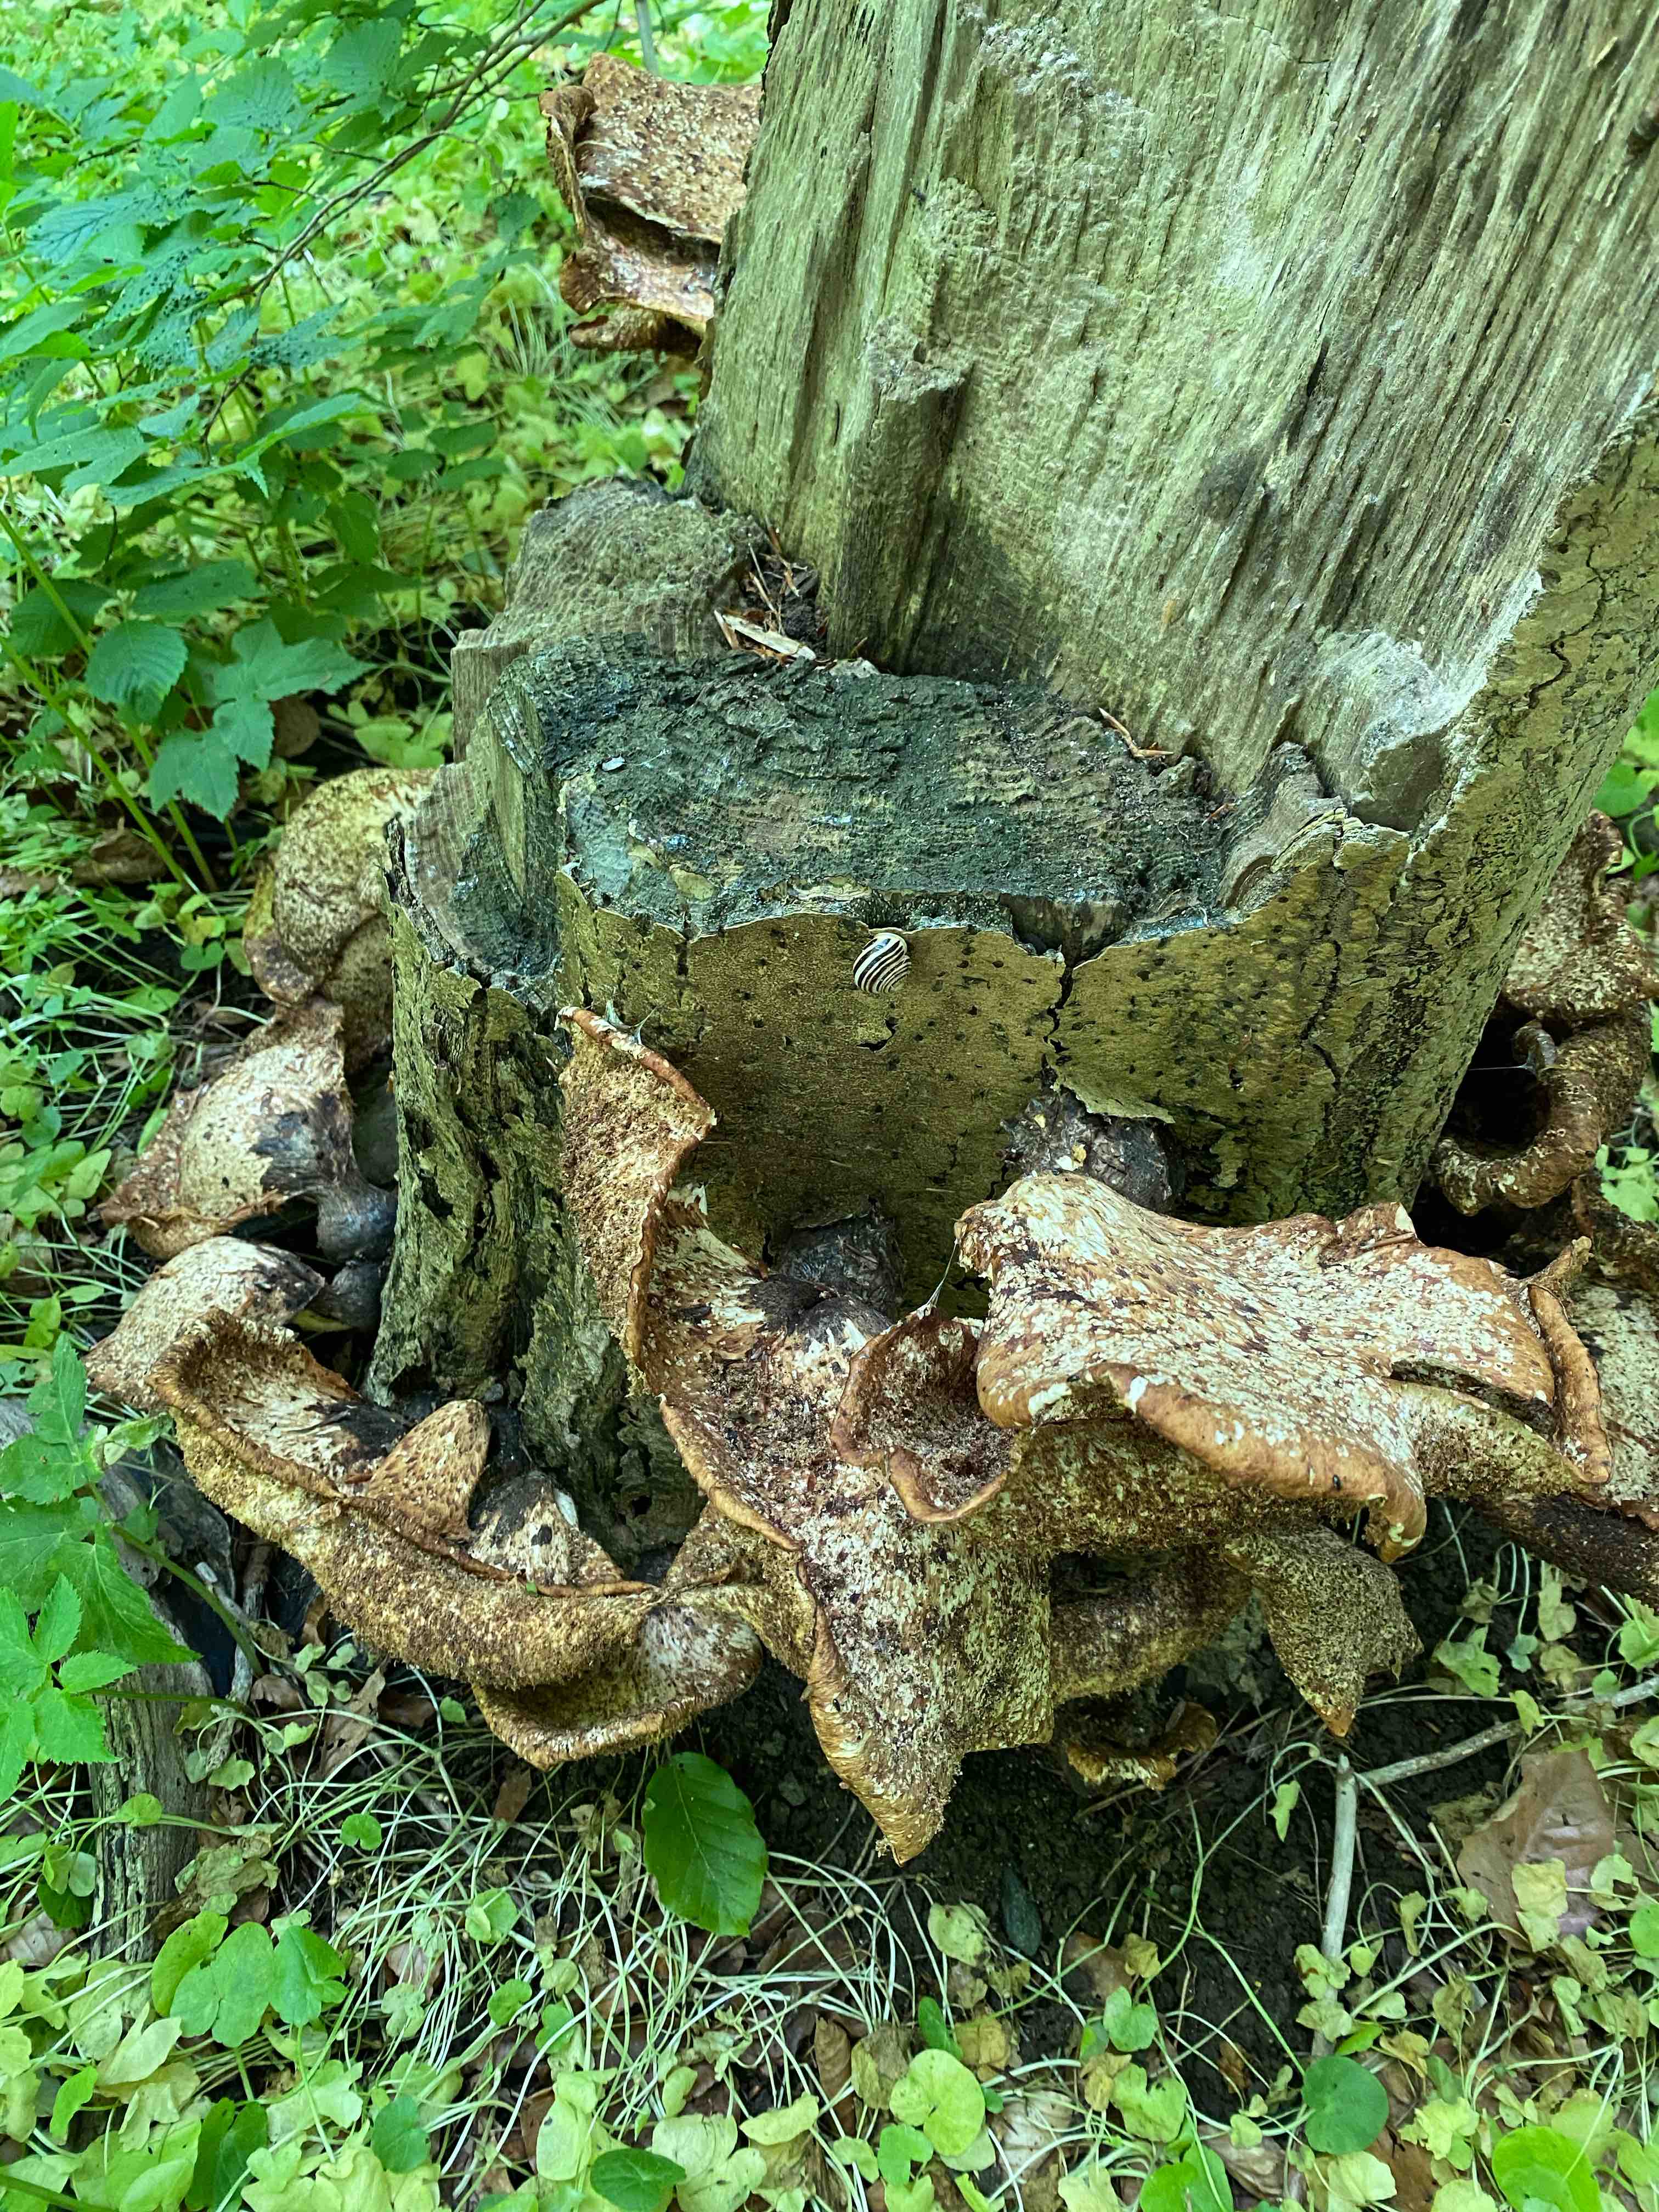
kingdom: Fungi
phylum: Basidiomycota
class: Agaricomycetes
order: Polyporales
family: Polyporaceae
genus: Cerioporus
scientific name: Cerioporus squamosus
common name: skællet stilkporesvamp
